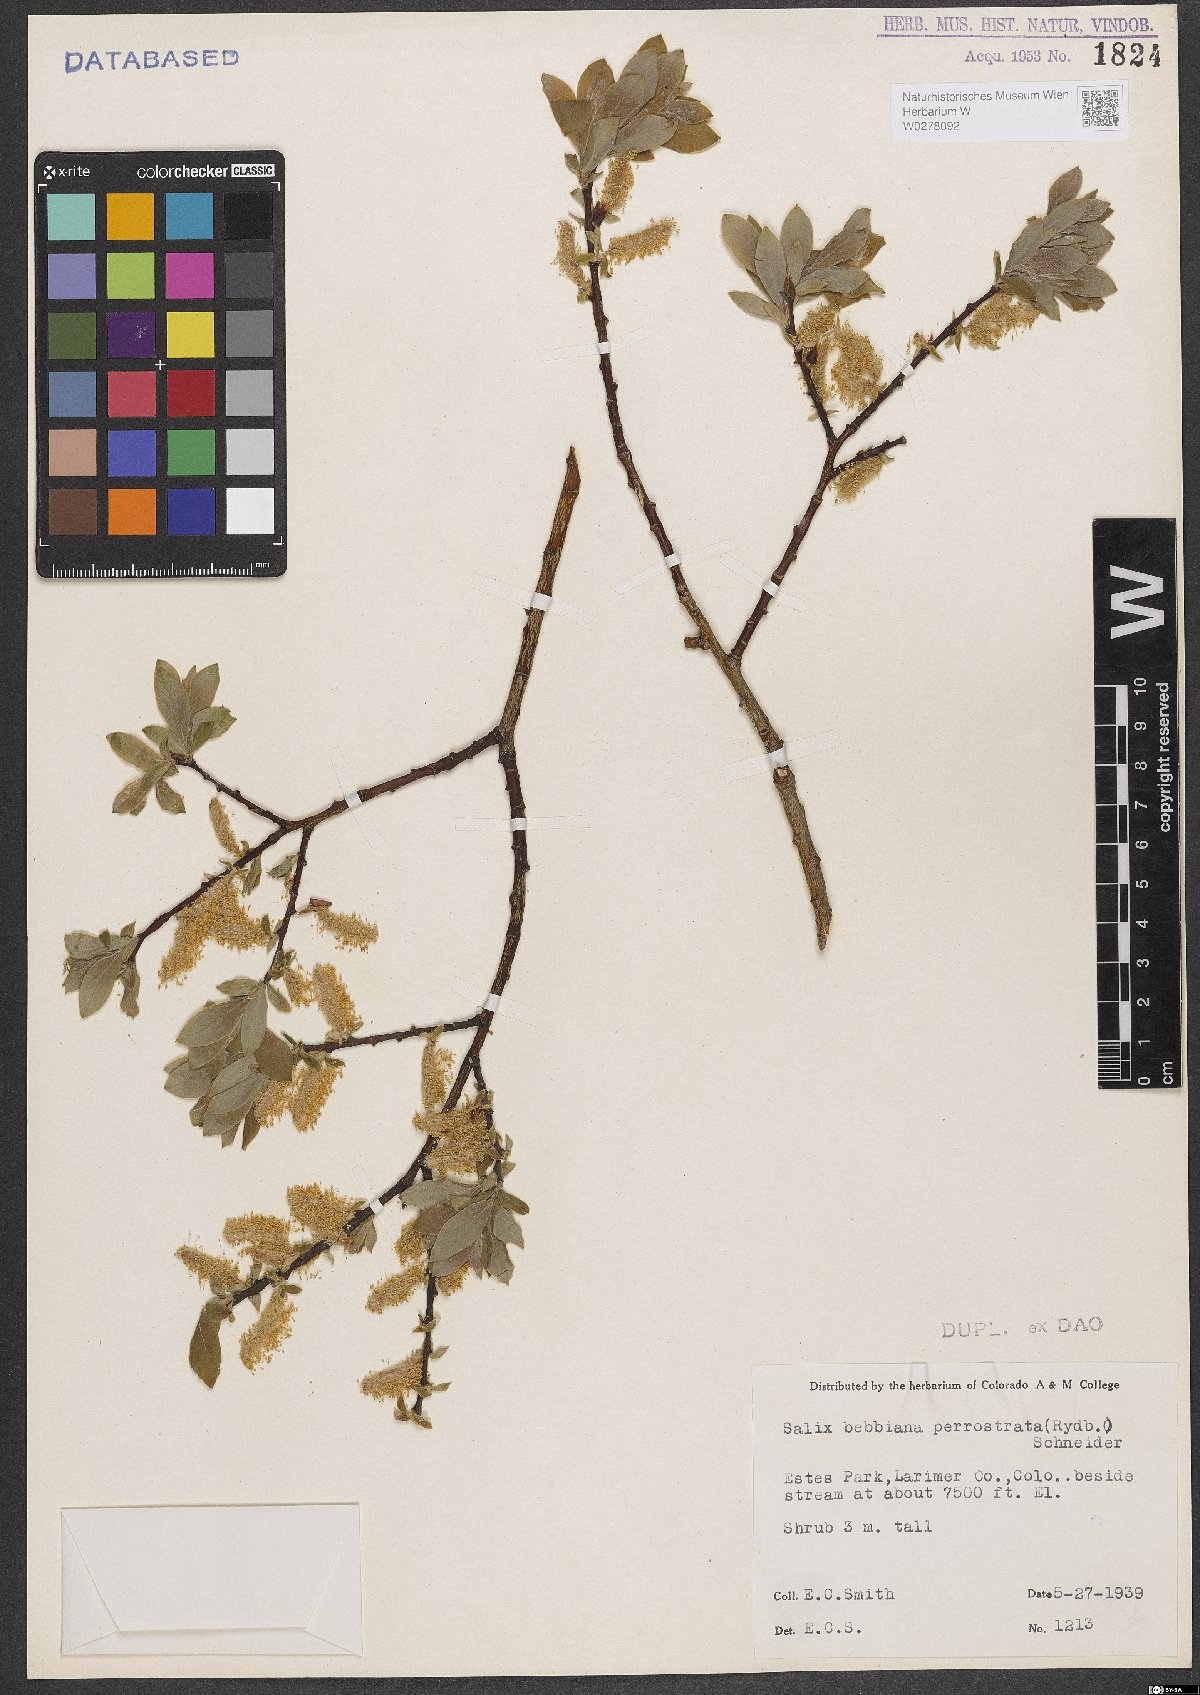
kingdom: Plantae
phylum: Tracheophyta
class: Magnoliopsida
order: Malpighiales
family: Salicaceae
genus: Salix
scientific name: Salix bebbiana
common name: Bebb's willow
